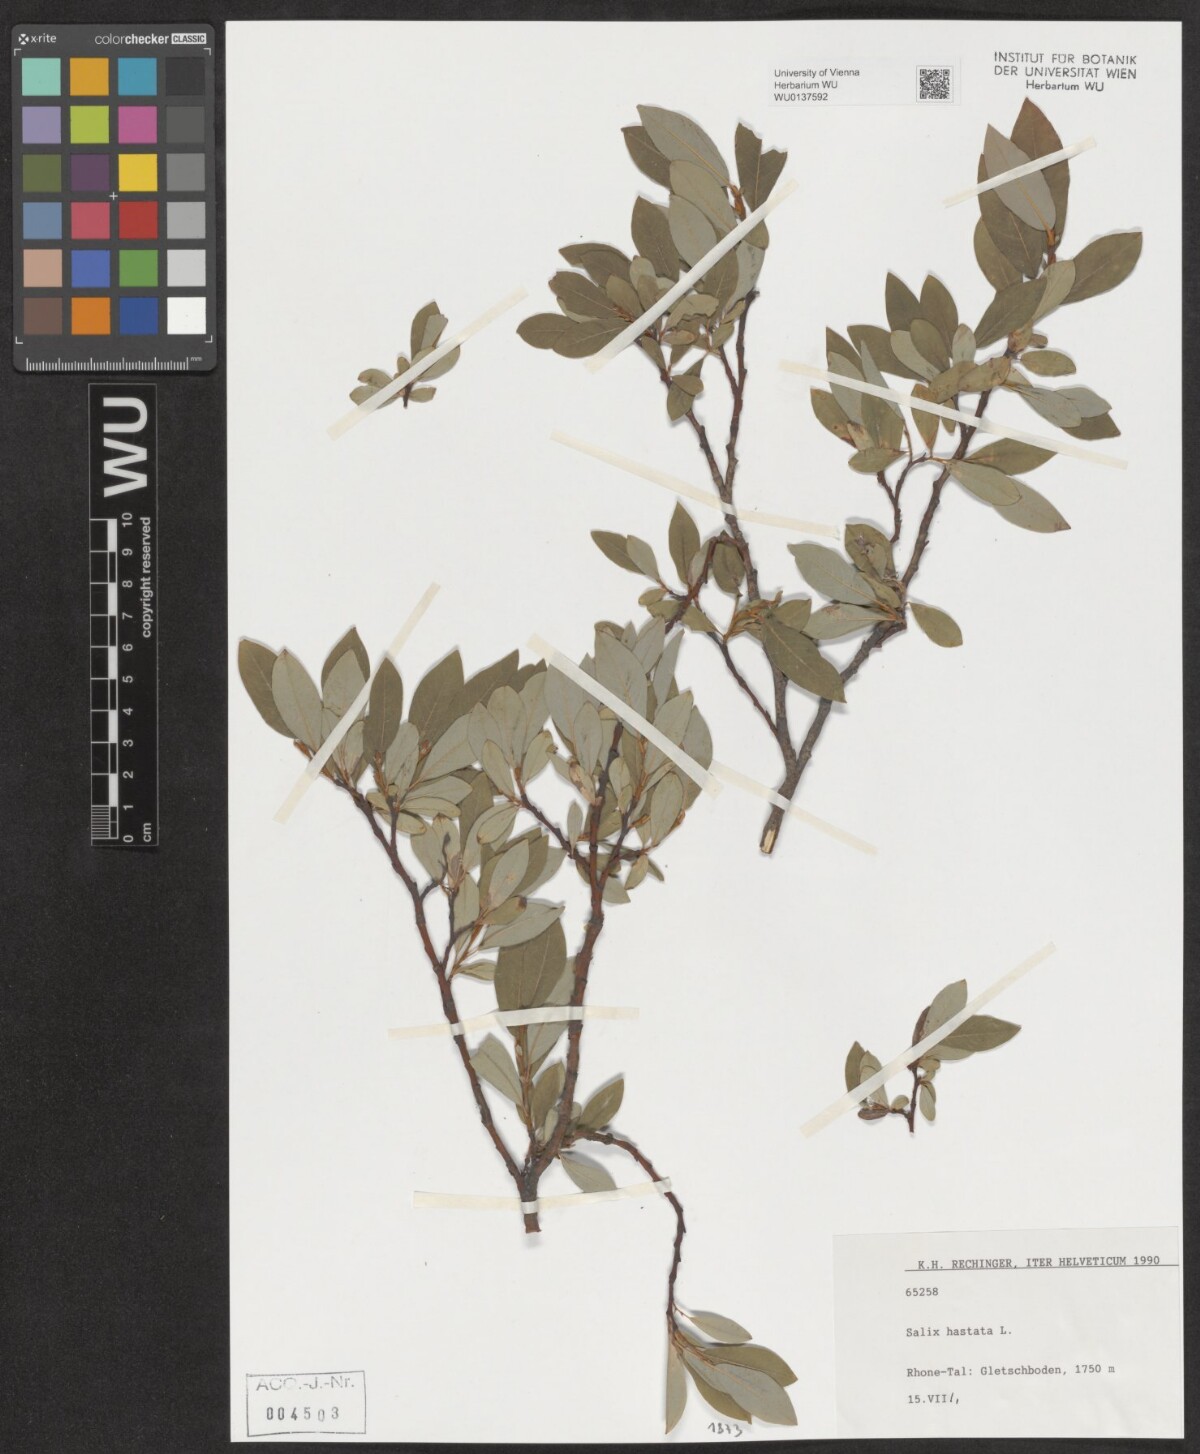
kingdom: Plantae
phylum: Tracheophyta
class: Magnoliopsida
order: Malpighiales
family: Salicaceae
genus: Salix
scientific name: Salix hastata
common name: Halberd willow
